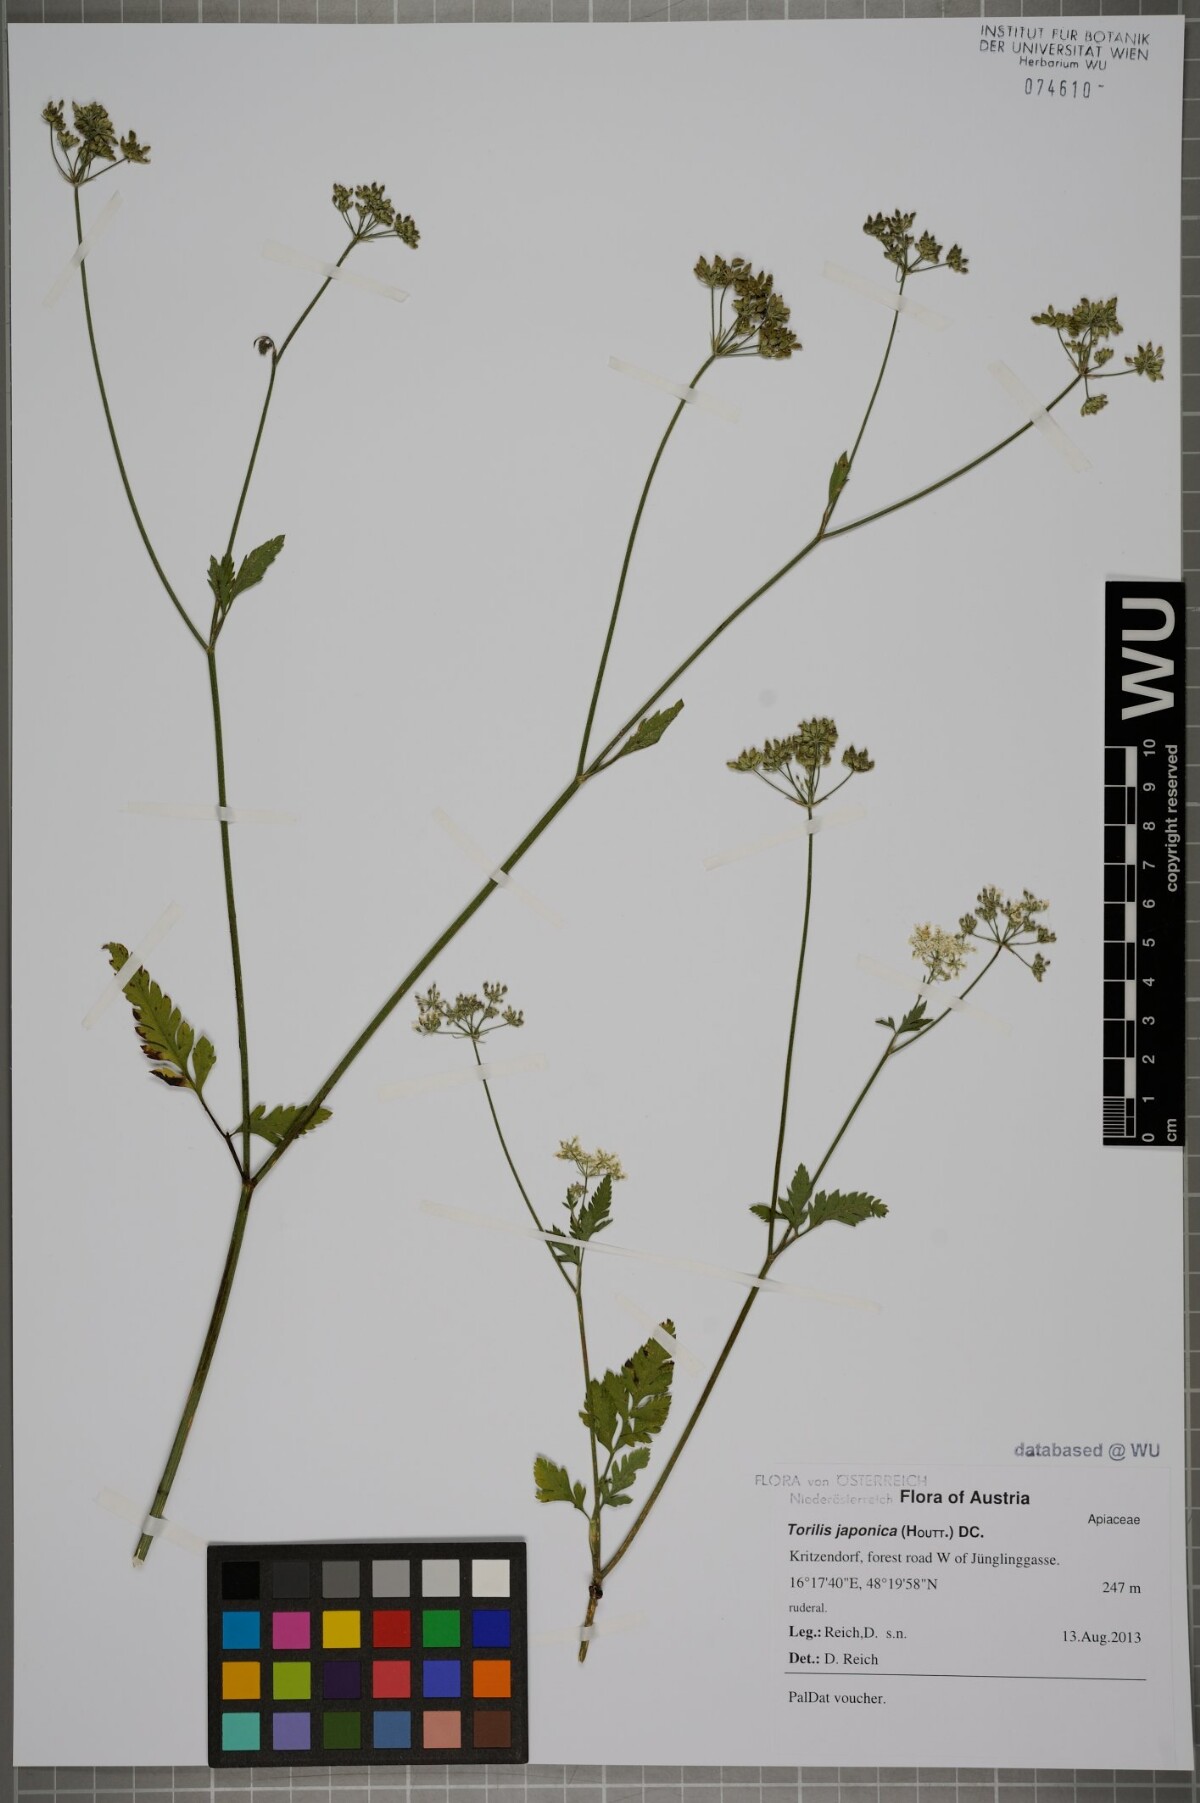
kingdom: Plantae
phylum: Tracheophyta
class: Magnoliopsida
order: Apiales
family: Apiaceae
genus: Torilis
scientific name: Torilis japonica
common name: Upright hedge-parsley
